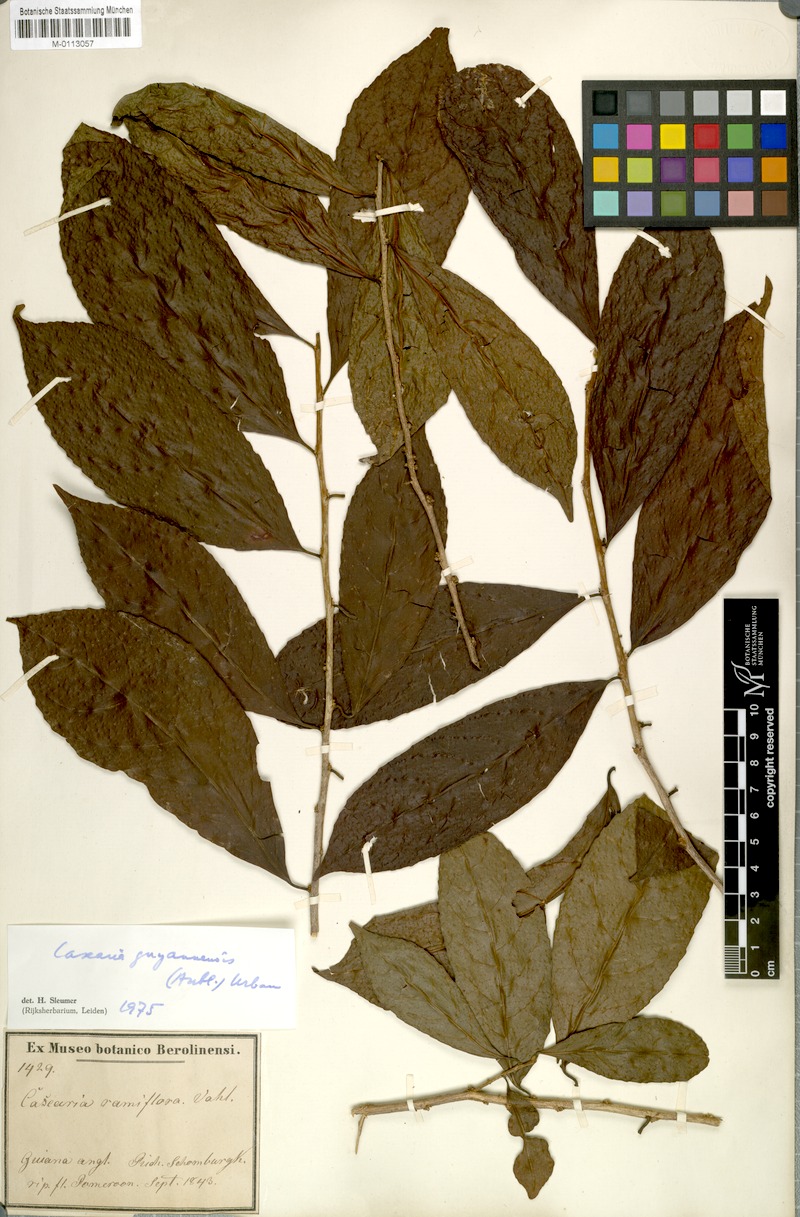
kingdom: Plantae
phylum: Tracheophyta
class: Magnoliopsida
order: Malpighiales
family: Salicaceae
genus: Casearia
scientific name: Casearia guianensis
